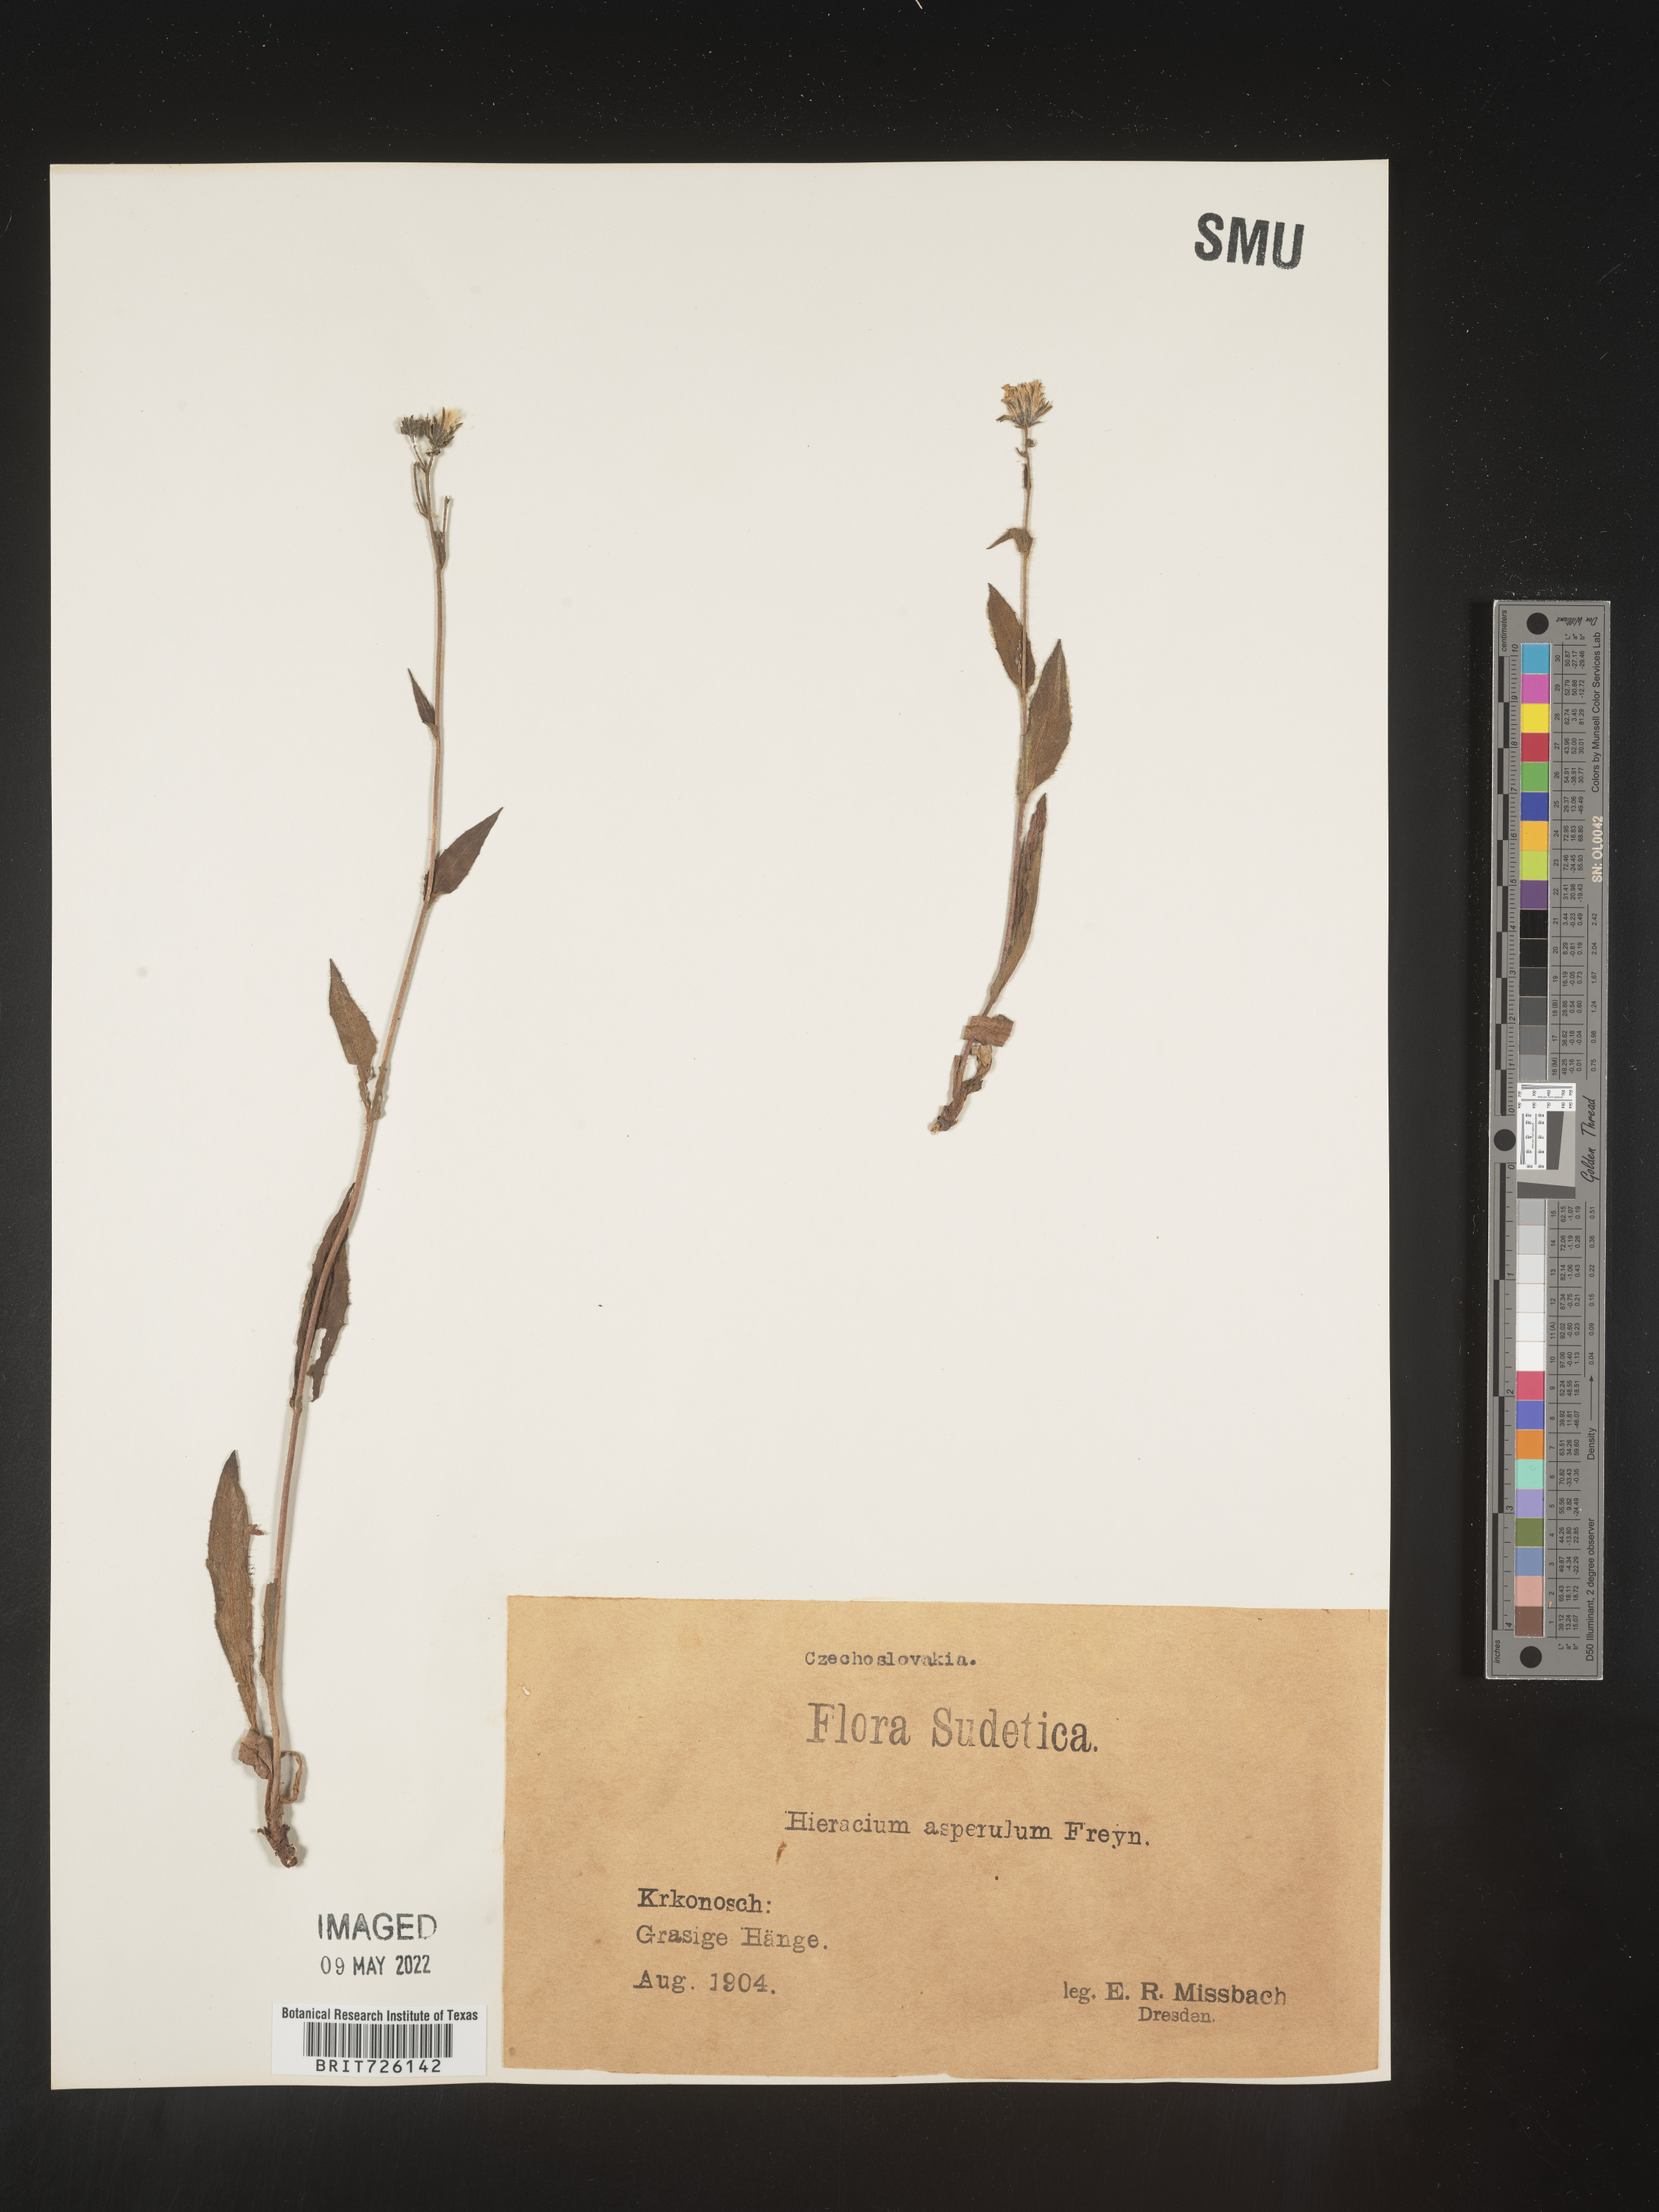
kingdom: Plantae
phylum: Tracheophyta
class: Magnoliopsida
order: Asterales
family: Asteraceae
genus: Hieracium
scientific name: Hieracium
